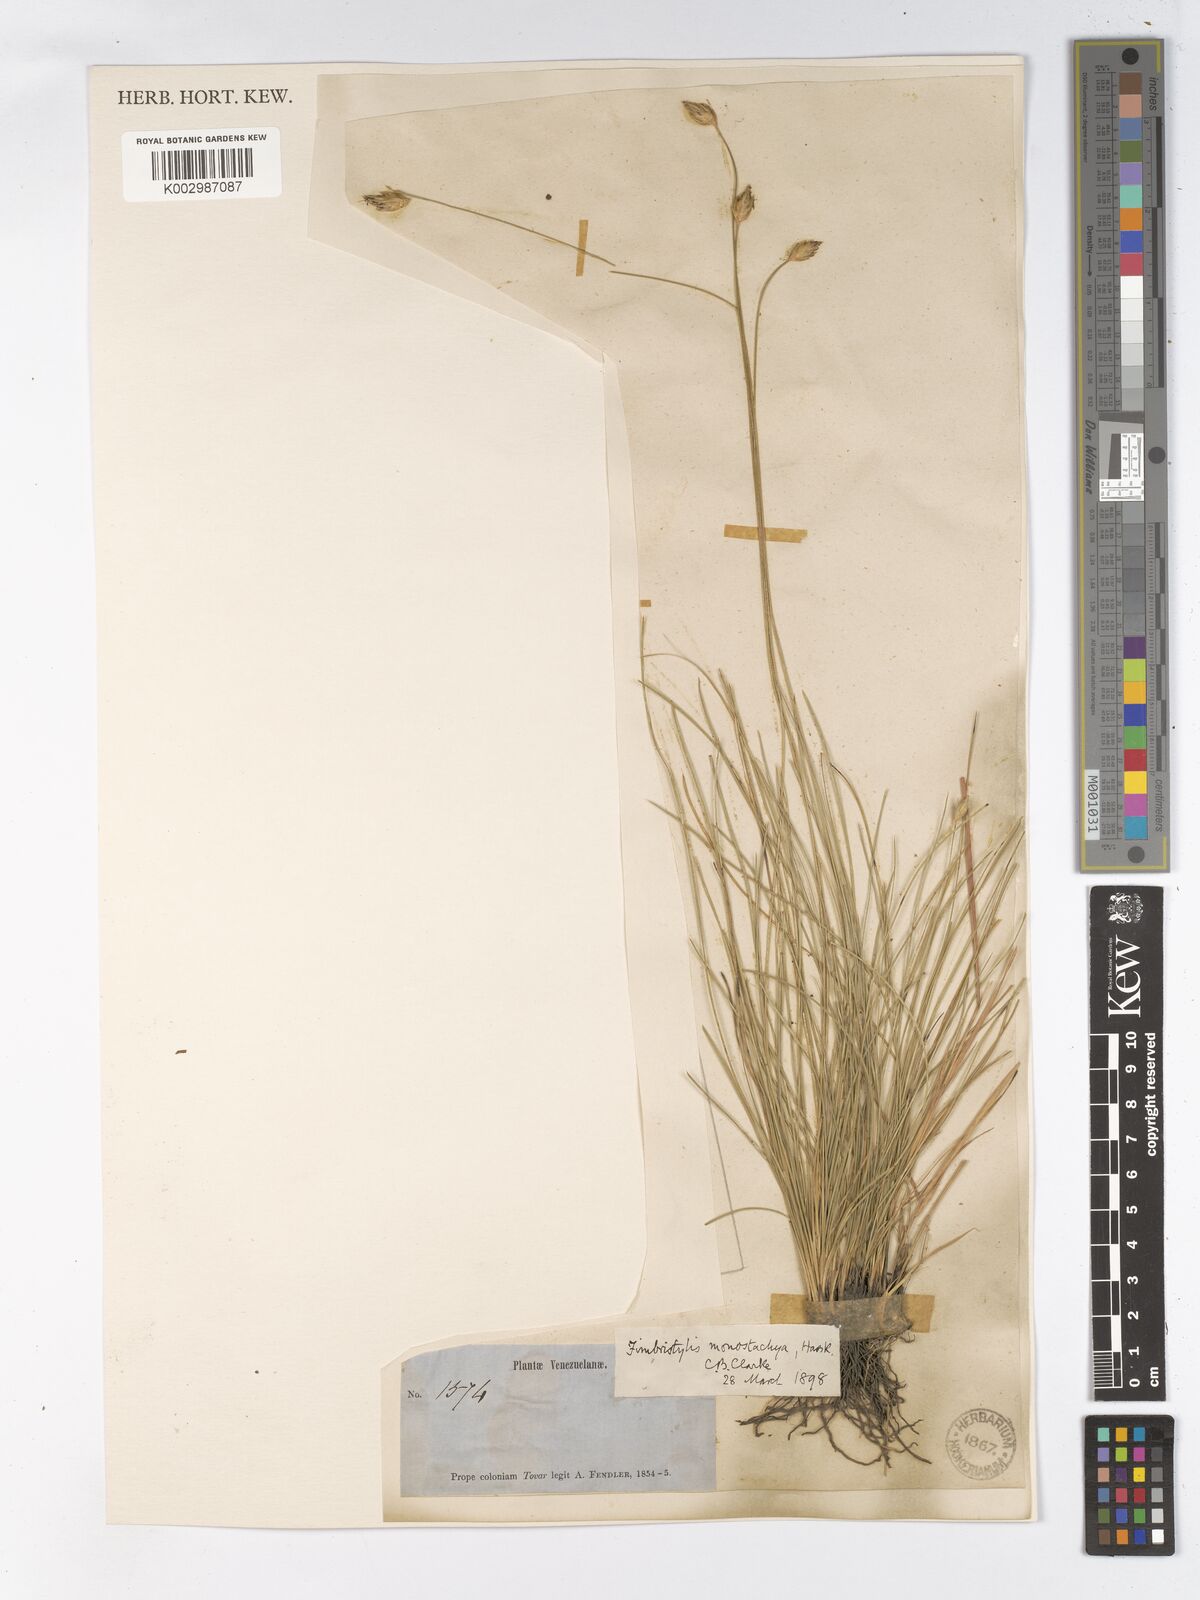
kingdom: Plantae
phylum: Tracheophyta
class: Liliopsida
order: Poales
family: Cyperaceae
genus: Abildgaardia
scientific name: Abildgaardia ovata
